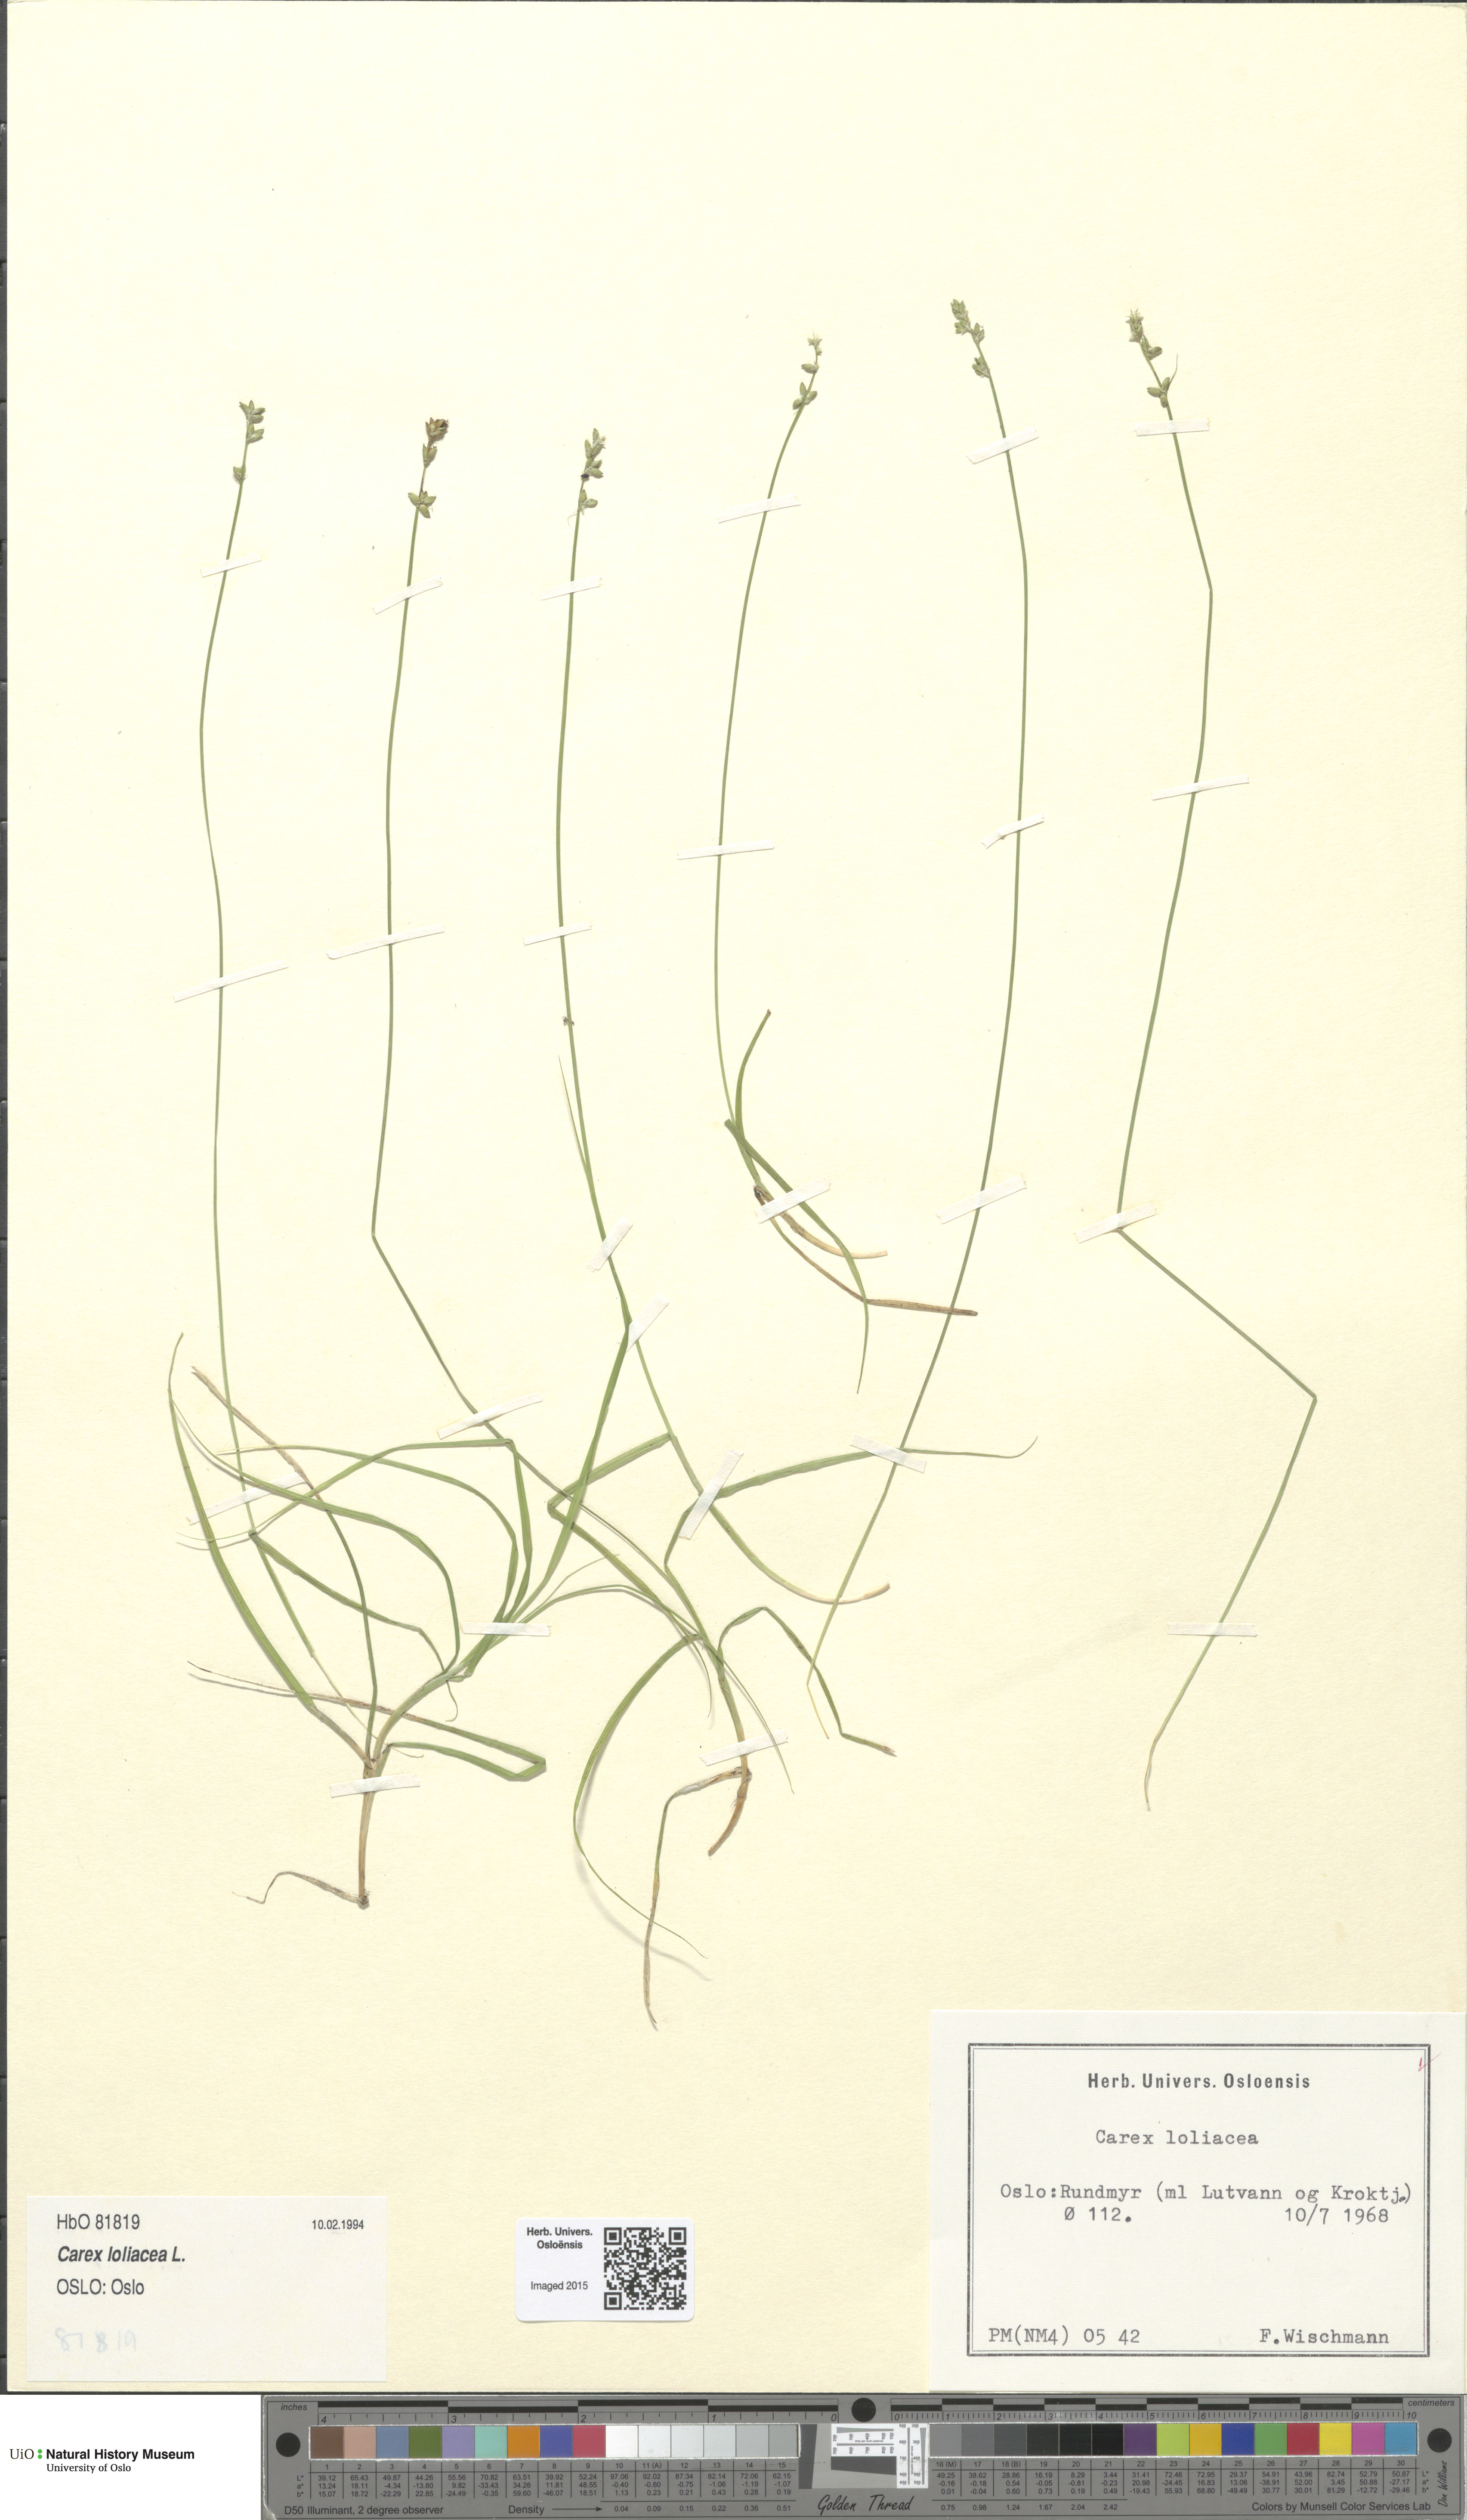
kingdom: Plantae
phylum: Tracheophyta
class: Liliopsida
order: Poales
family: Cyperaceae
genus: Carex
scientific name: Carex loliacea
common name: Ryegrass sedge
